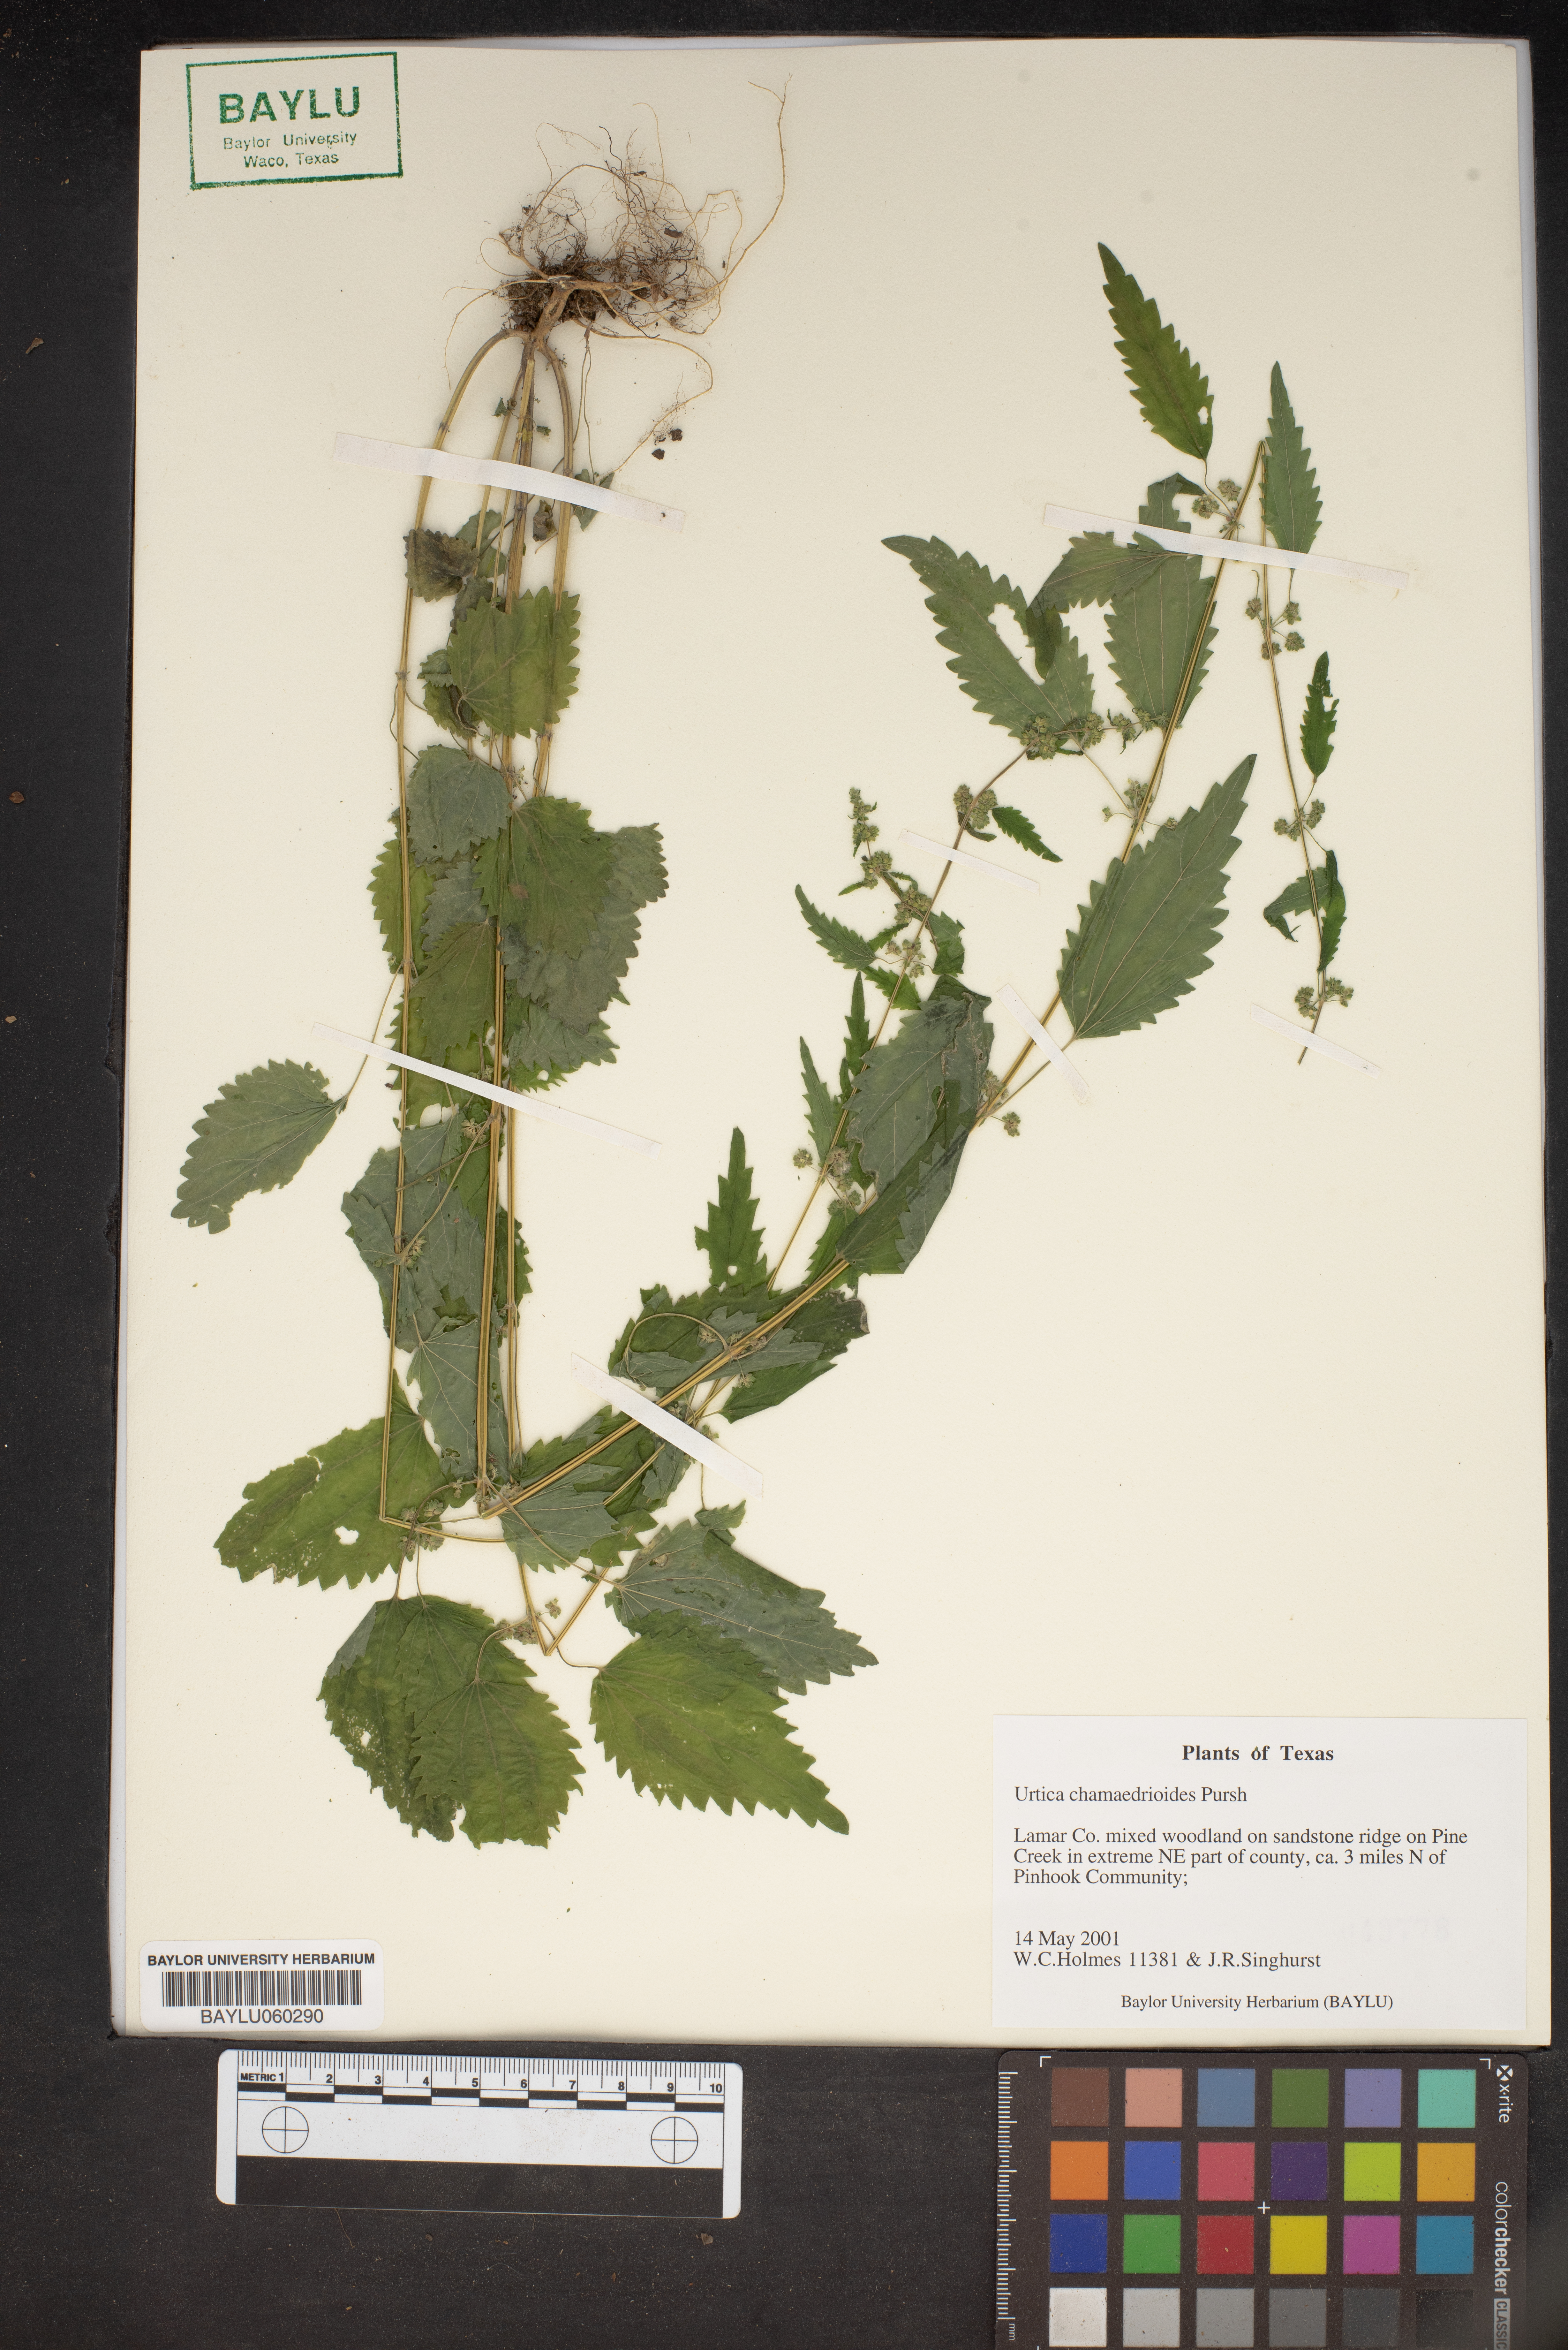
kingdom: Plantae
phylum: Tracheophyta
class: Magnoliopsida
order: Rosales
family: Urticaceae
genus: Urtica
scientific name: Urtica chamaedryoides
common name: Heart-leaf nettle
